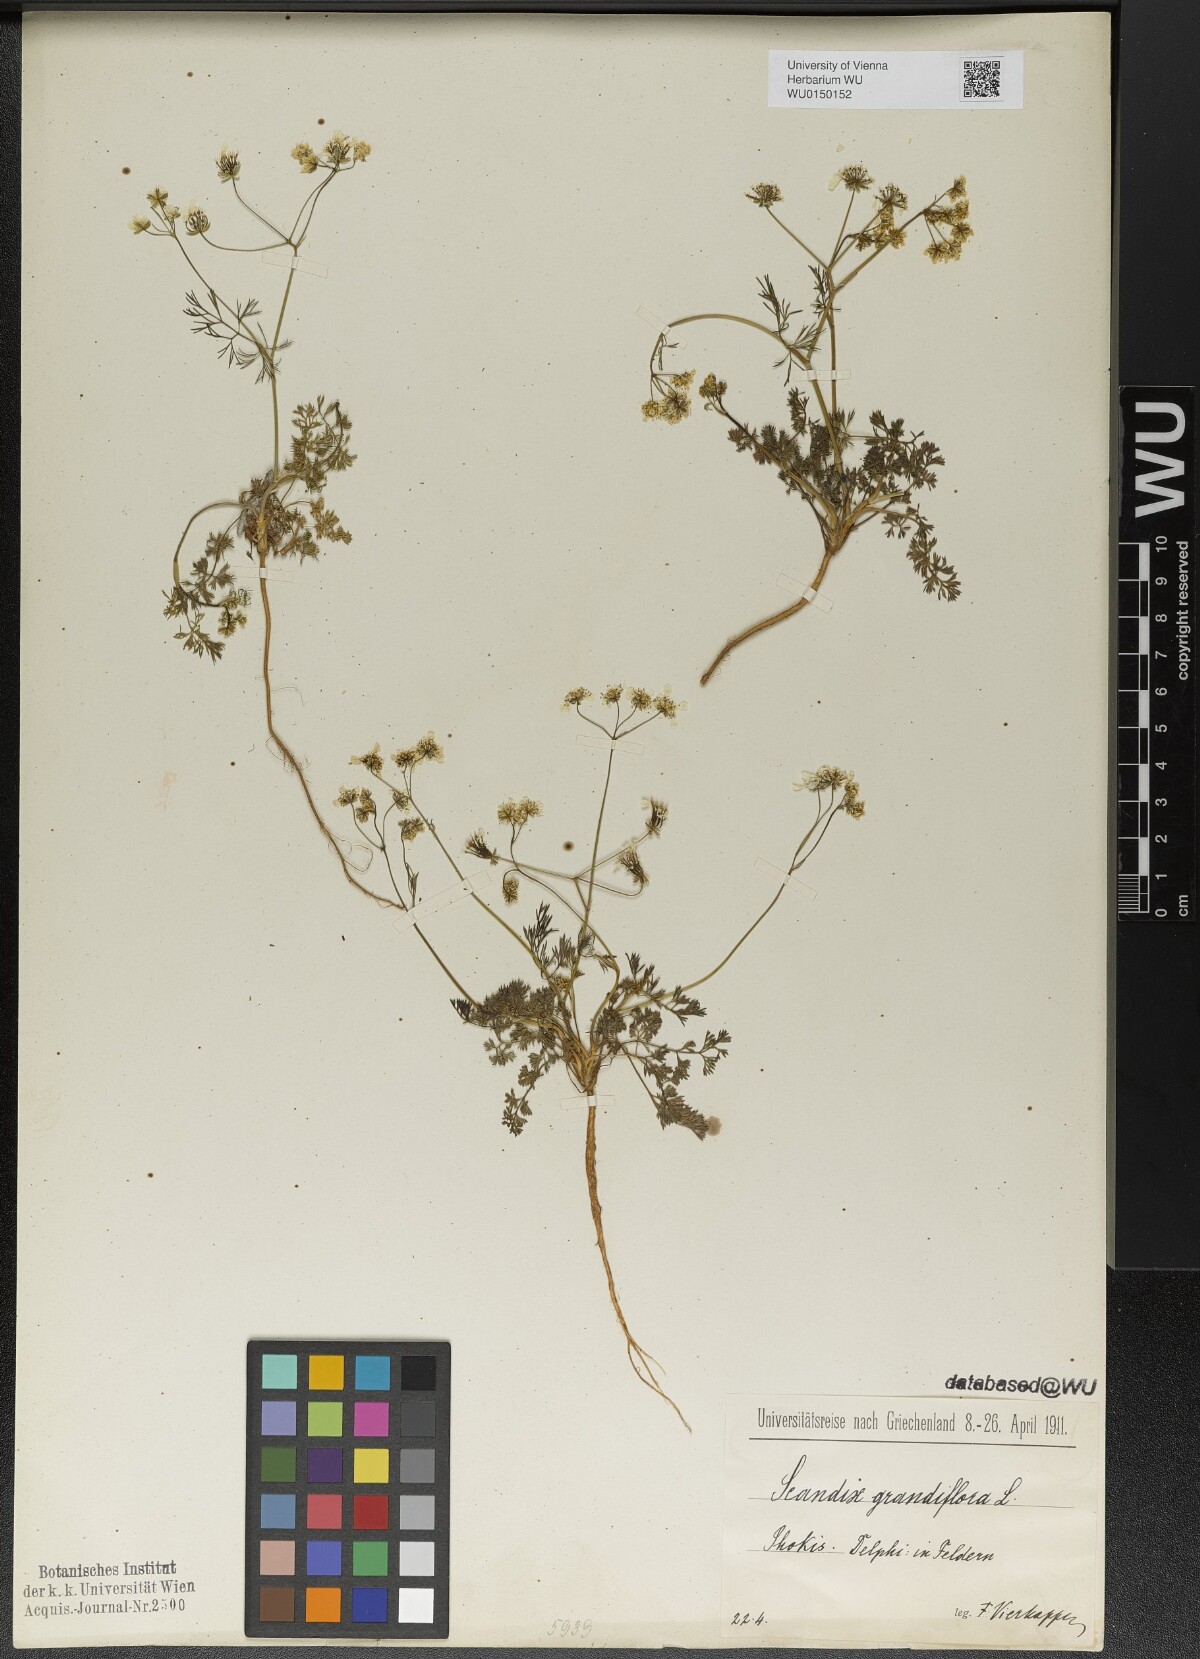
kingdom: Plantae
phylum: Tracheophyta
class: Magnoliopsida
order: Apiales
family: Apiaceae
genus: Scandix
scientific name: Scandix australis
